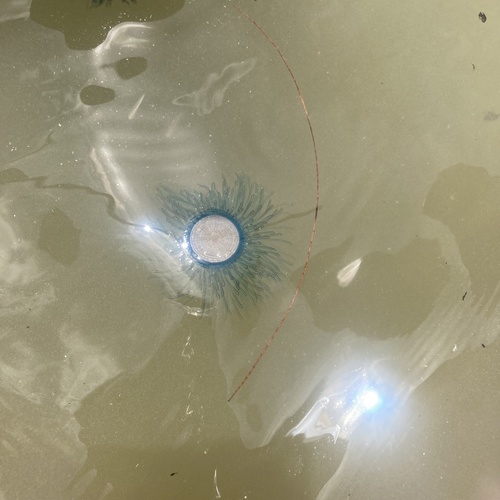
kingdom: Animalia
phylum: Cnidaria
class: Hydrozoa
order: Anthoathecata
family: Porpitidae
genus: Porpita
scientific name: Porpita porpita
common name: Blue Button
